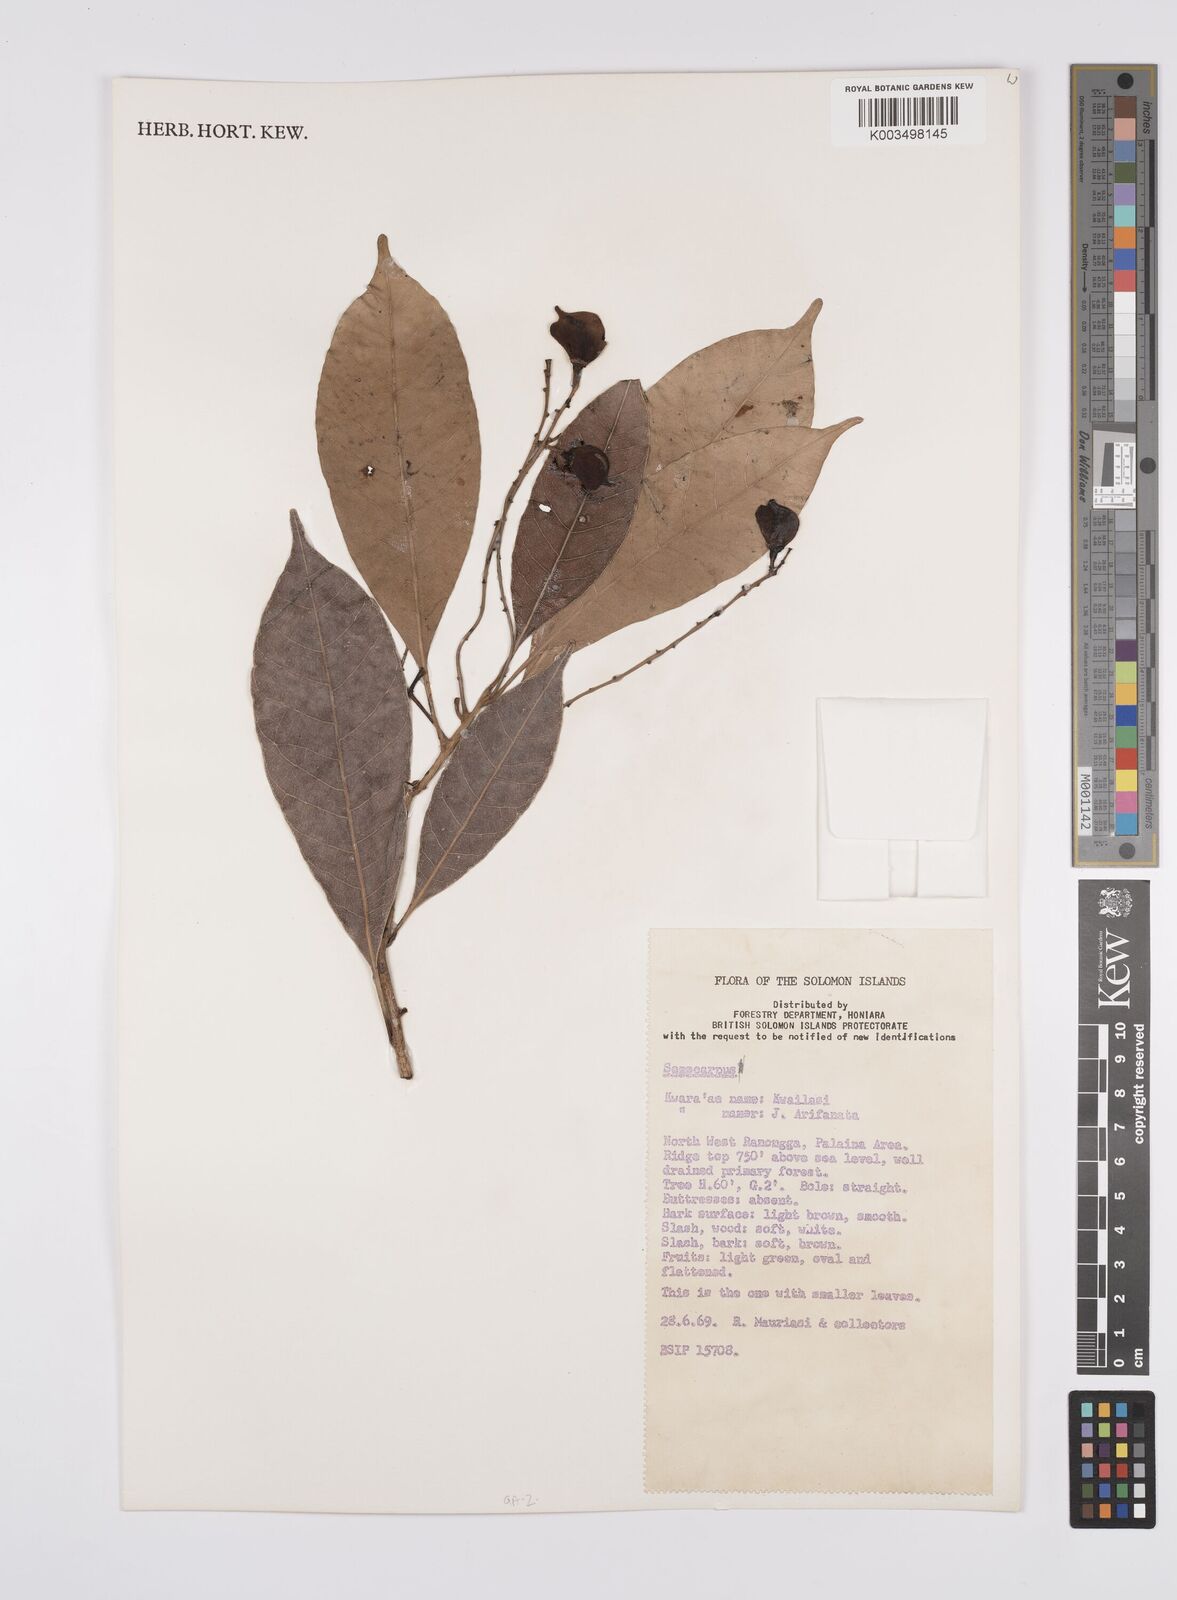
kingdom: Plantae
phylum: Tracheophyta
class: Magnoliopsida
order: Sapindales
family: Anacardiaceae
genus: Semecarpus
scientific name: Semecarpus
